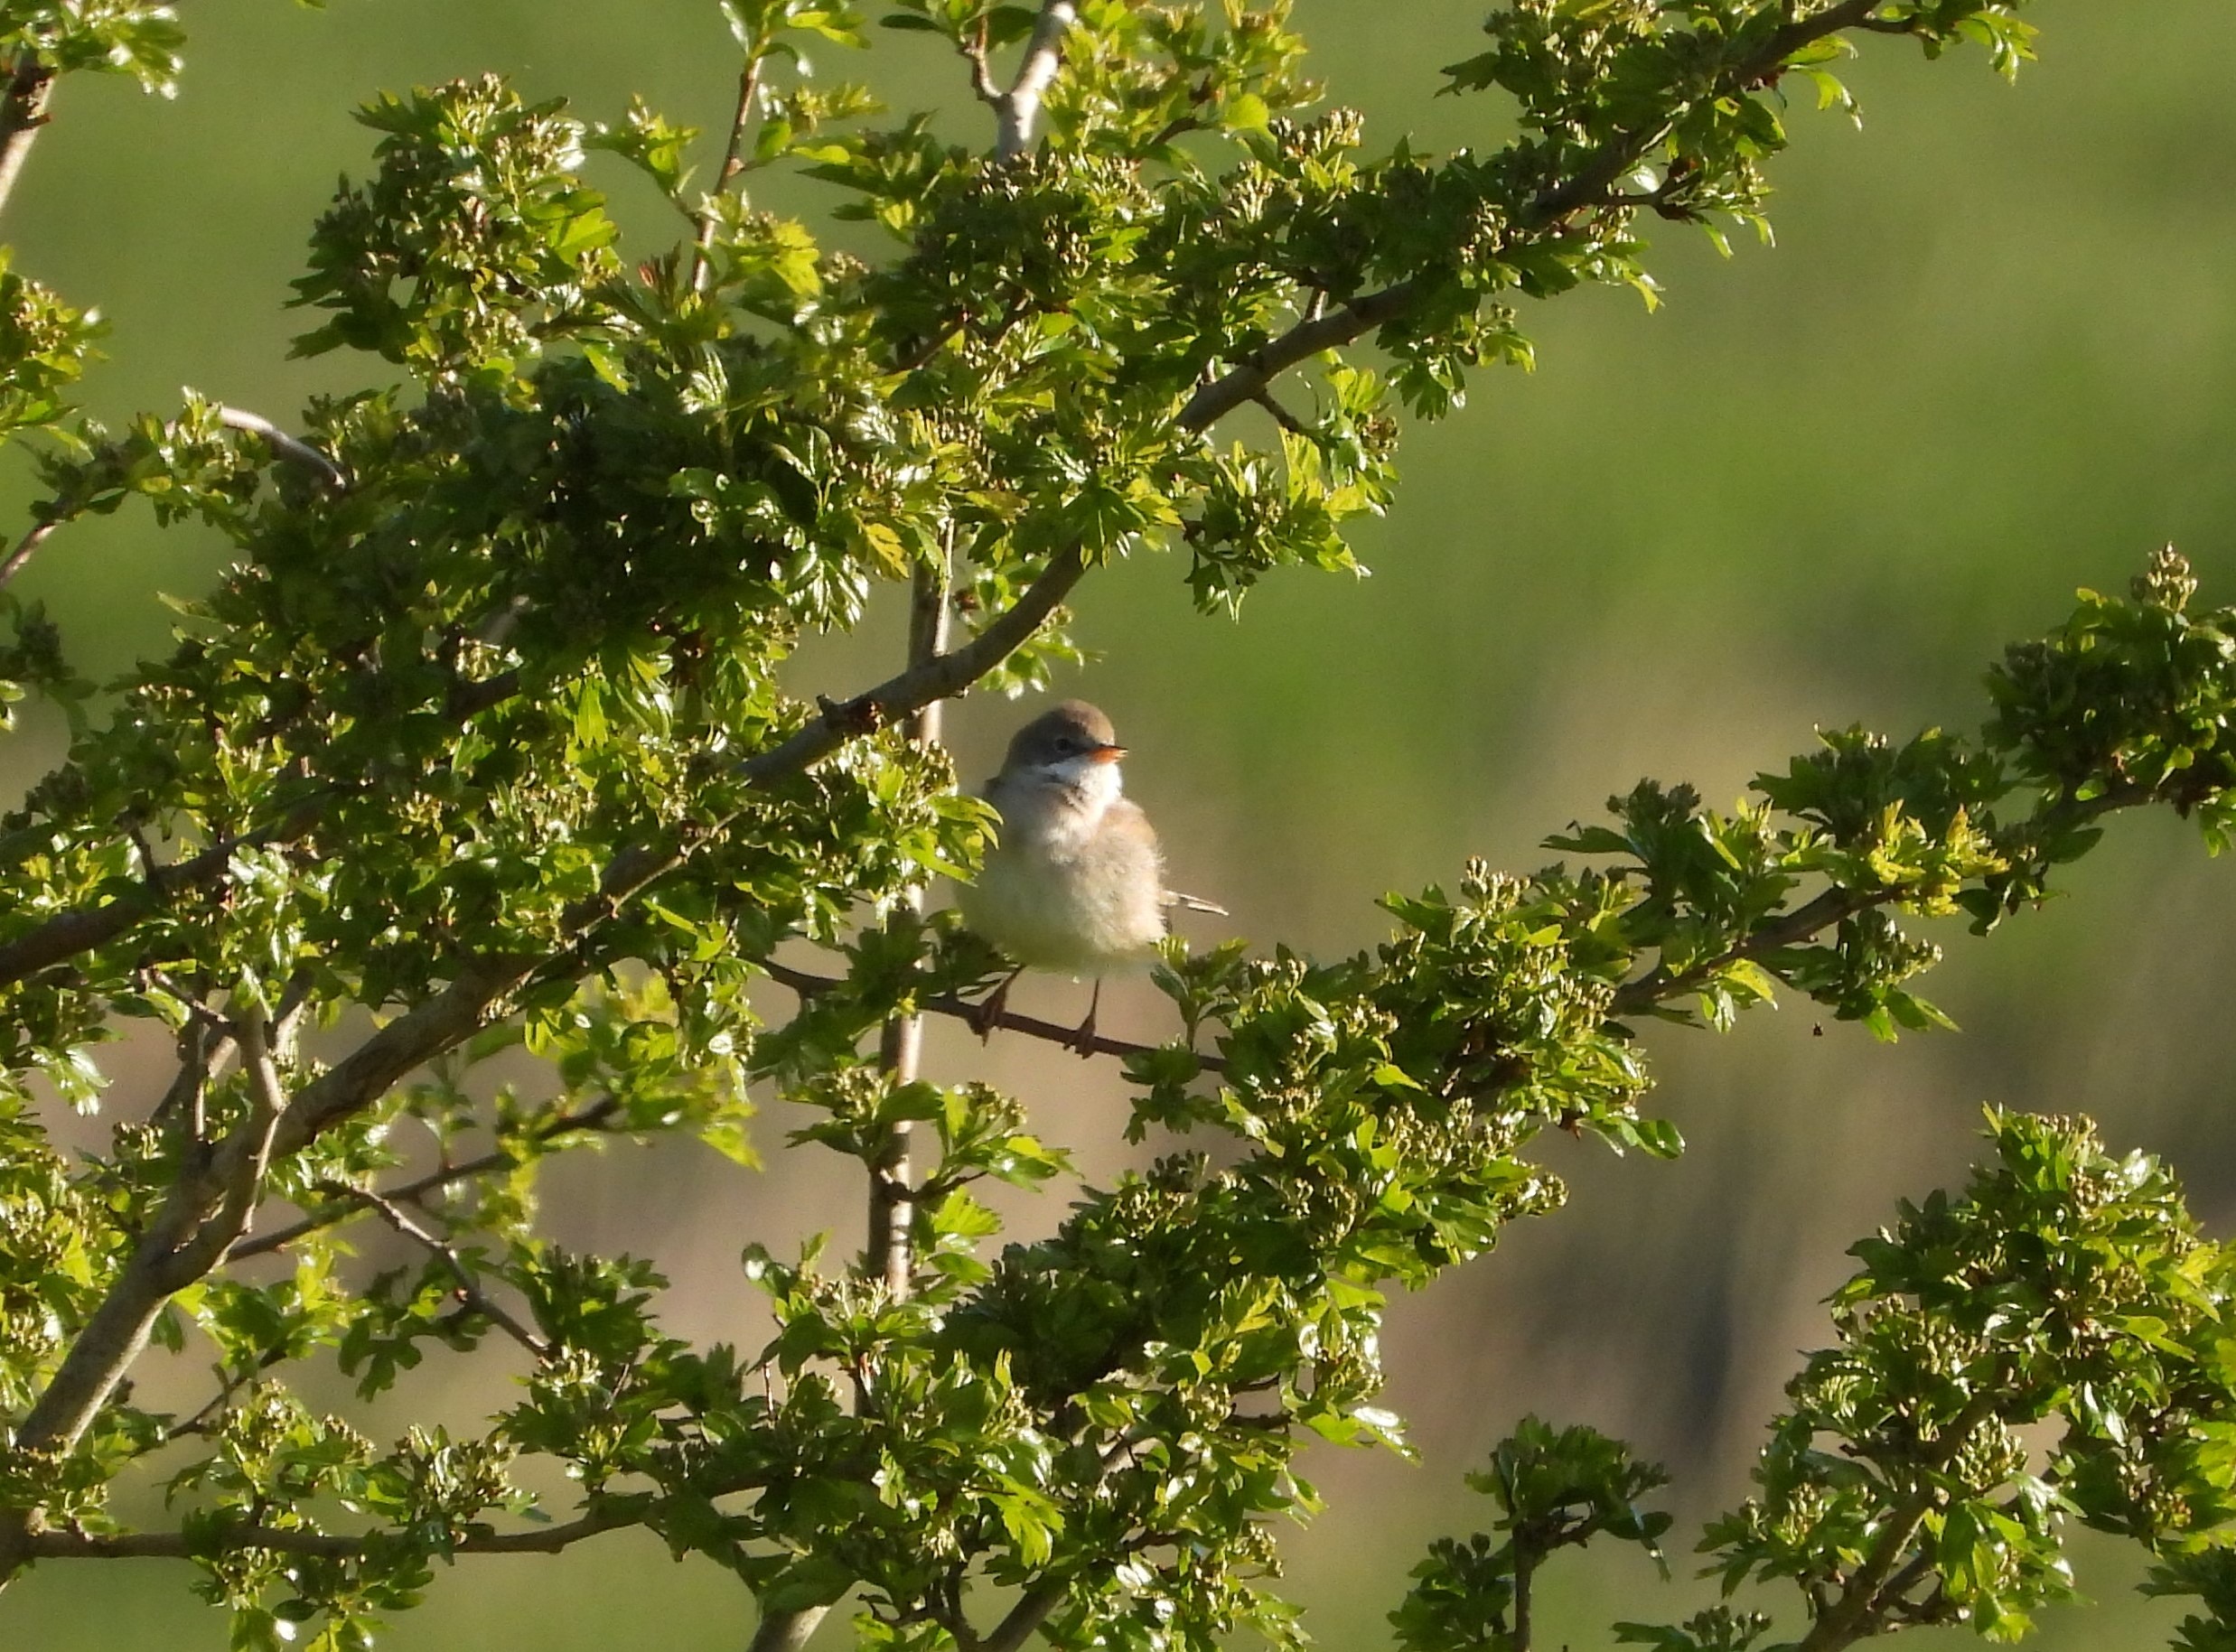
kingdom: Animalia
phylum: Chordata
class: Aves
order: Passeriformes
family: Sylviidae
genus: Sylvia
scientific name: Sylvia communis
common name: Tornsanger
